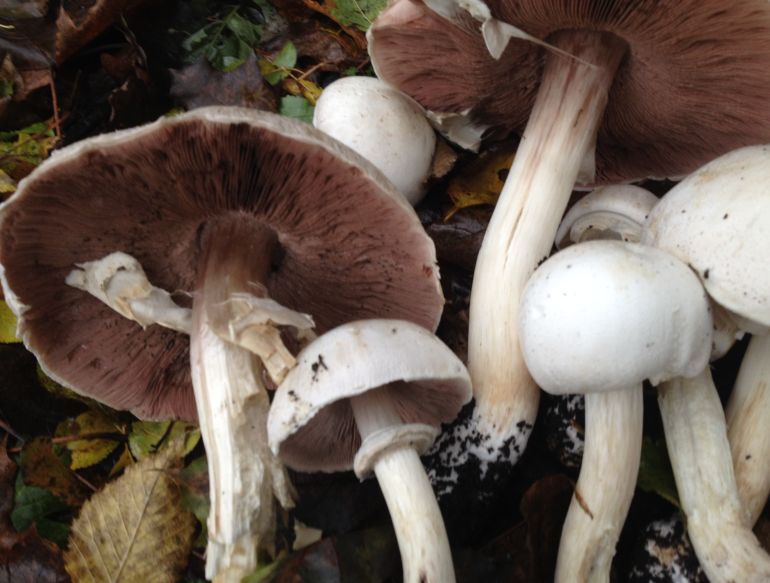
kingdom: Fungi
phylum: Basidiomycota
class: Agaricomycetes
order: Agaricales
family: Agaricaceae
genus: Agaricus
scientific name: Agaricus xanthodermus
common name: karbol-champignon
